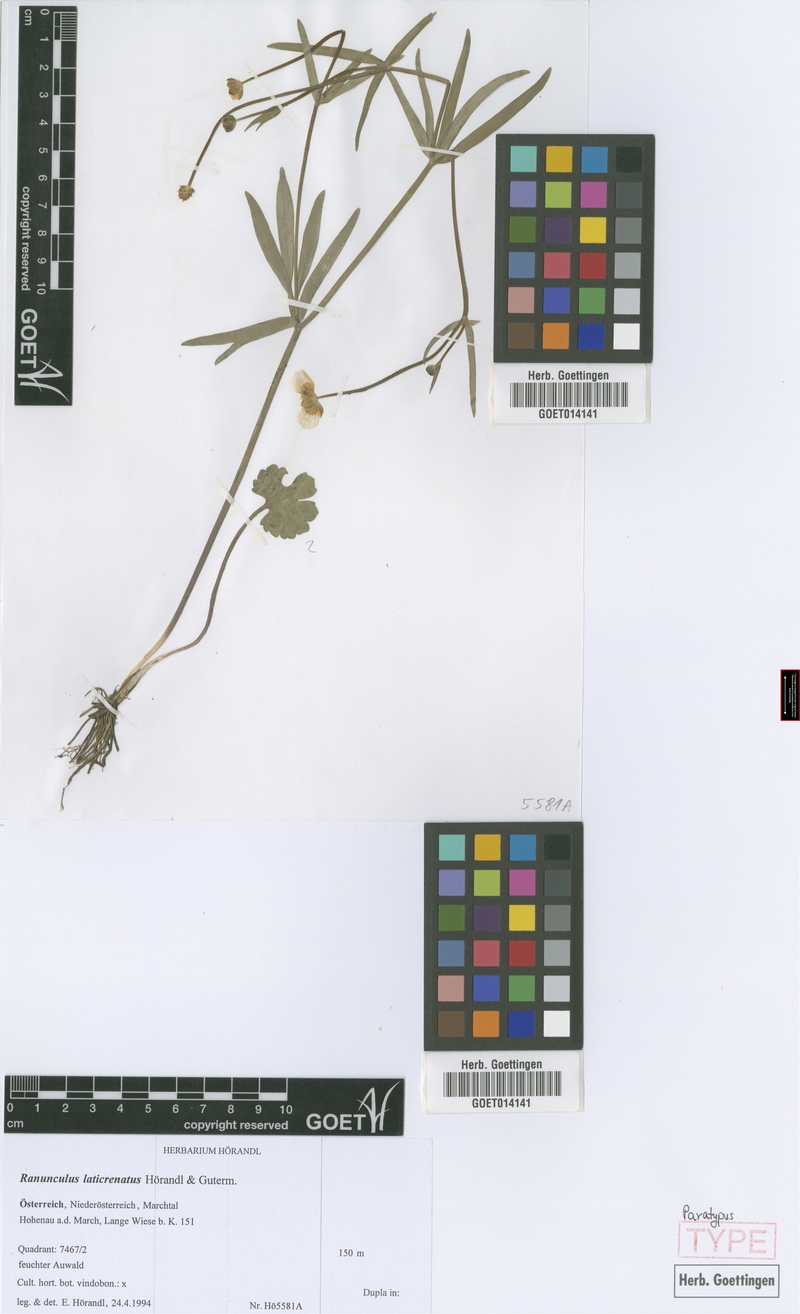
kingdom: Plantae
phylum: Tracheophyta
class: Magnoliopsida
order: Ranunculales
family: Ranunculaceae
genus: Ranunculus
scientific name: Ranunculus laticrenatus
